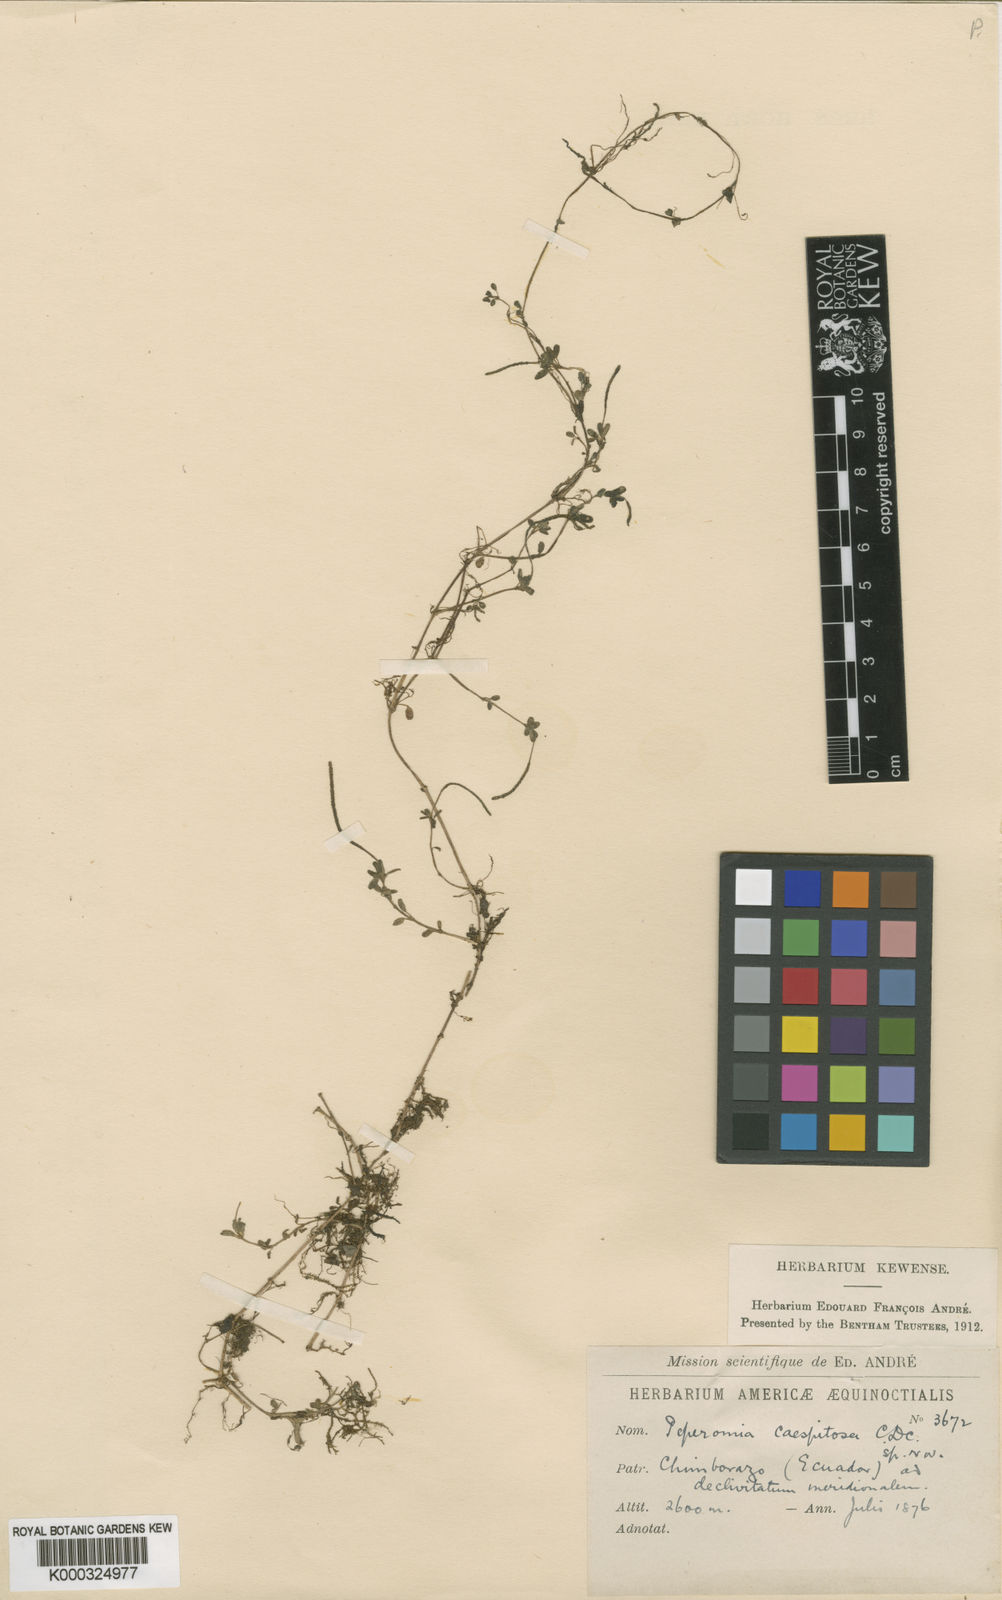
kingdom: Plantae
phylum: Tracheophyta
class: Magnoliopsida
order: Piperales
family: Piperaceae
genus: Peperomia
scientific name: Peperomia caespitosa
